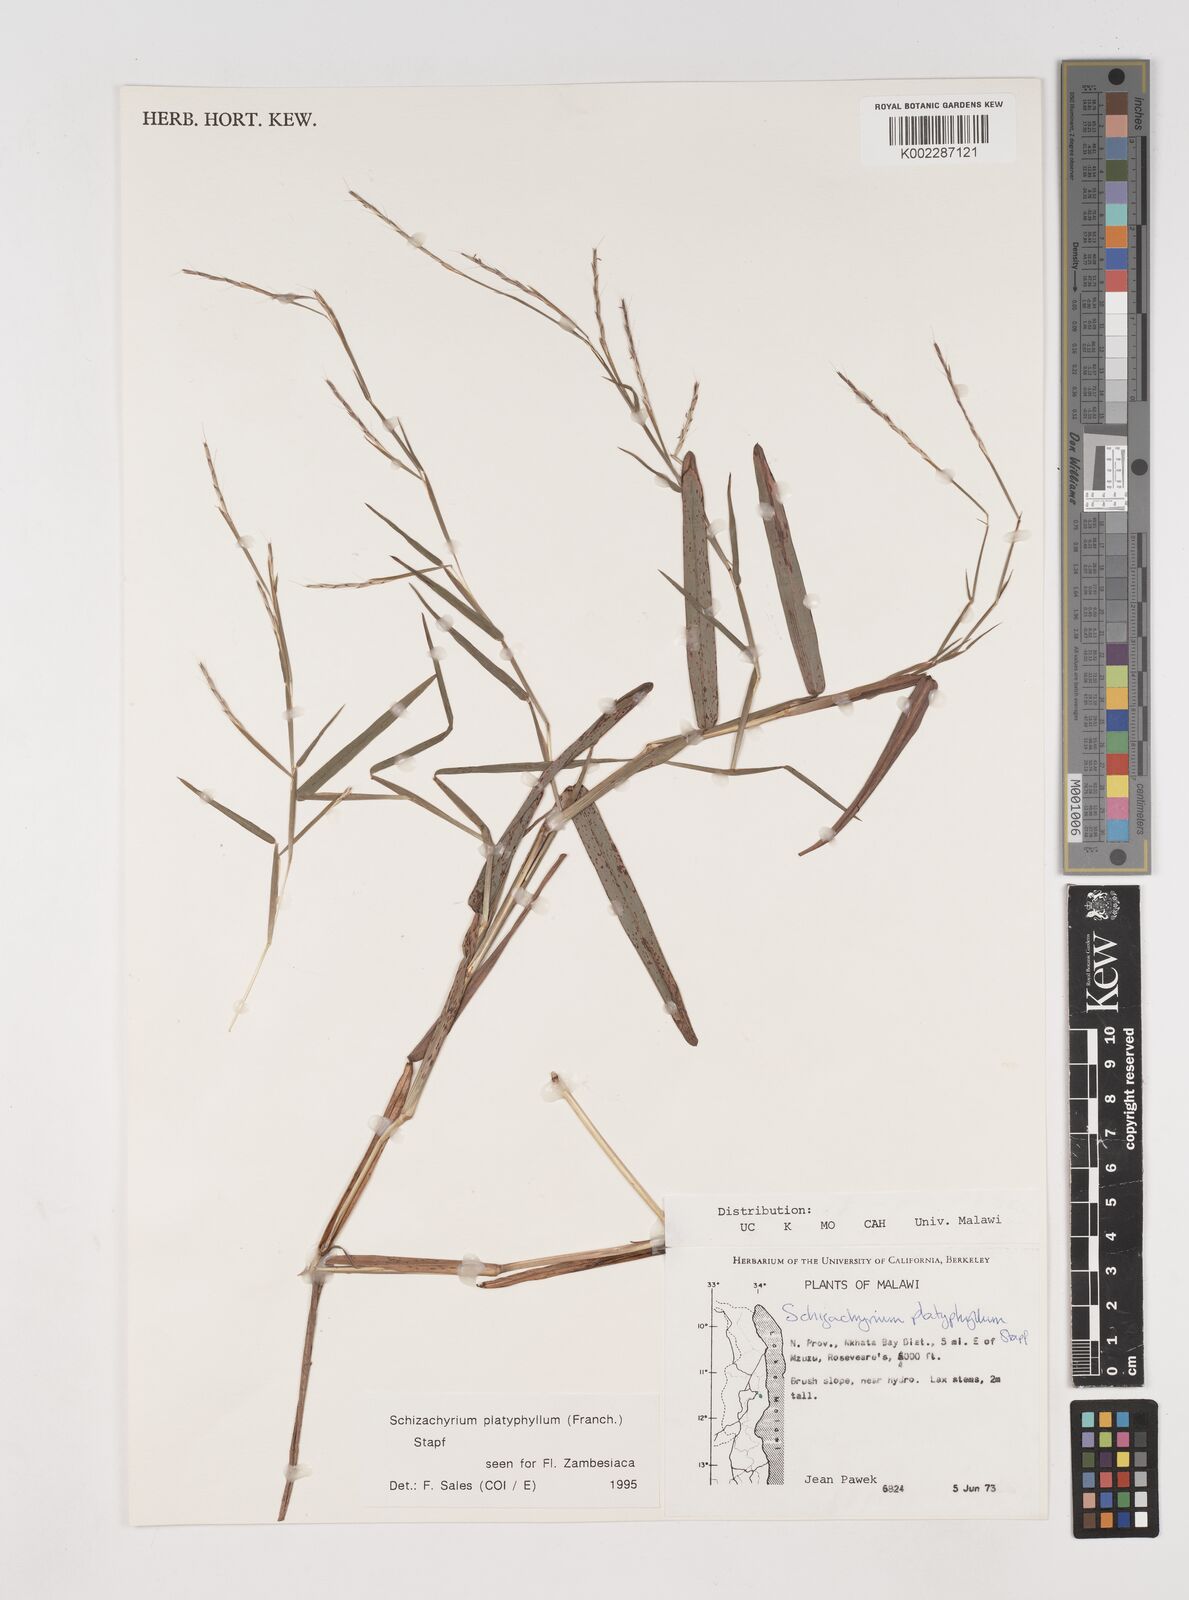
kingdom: Plantae
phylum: Tracheophyta
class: Liliopsida
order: Poales
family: Poaceae
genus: Schizachyrium
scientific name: Schizachyrium platyphyllum
